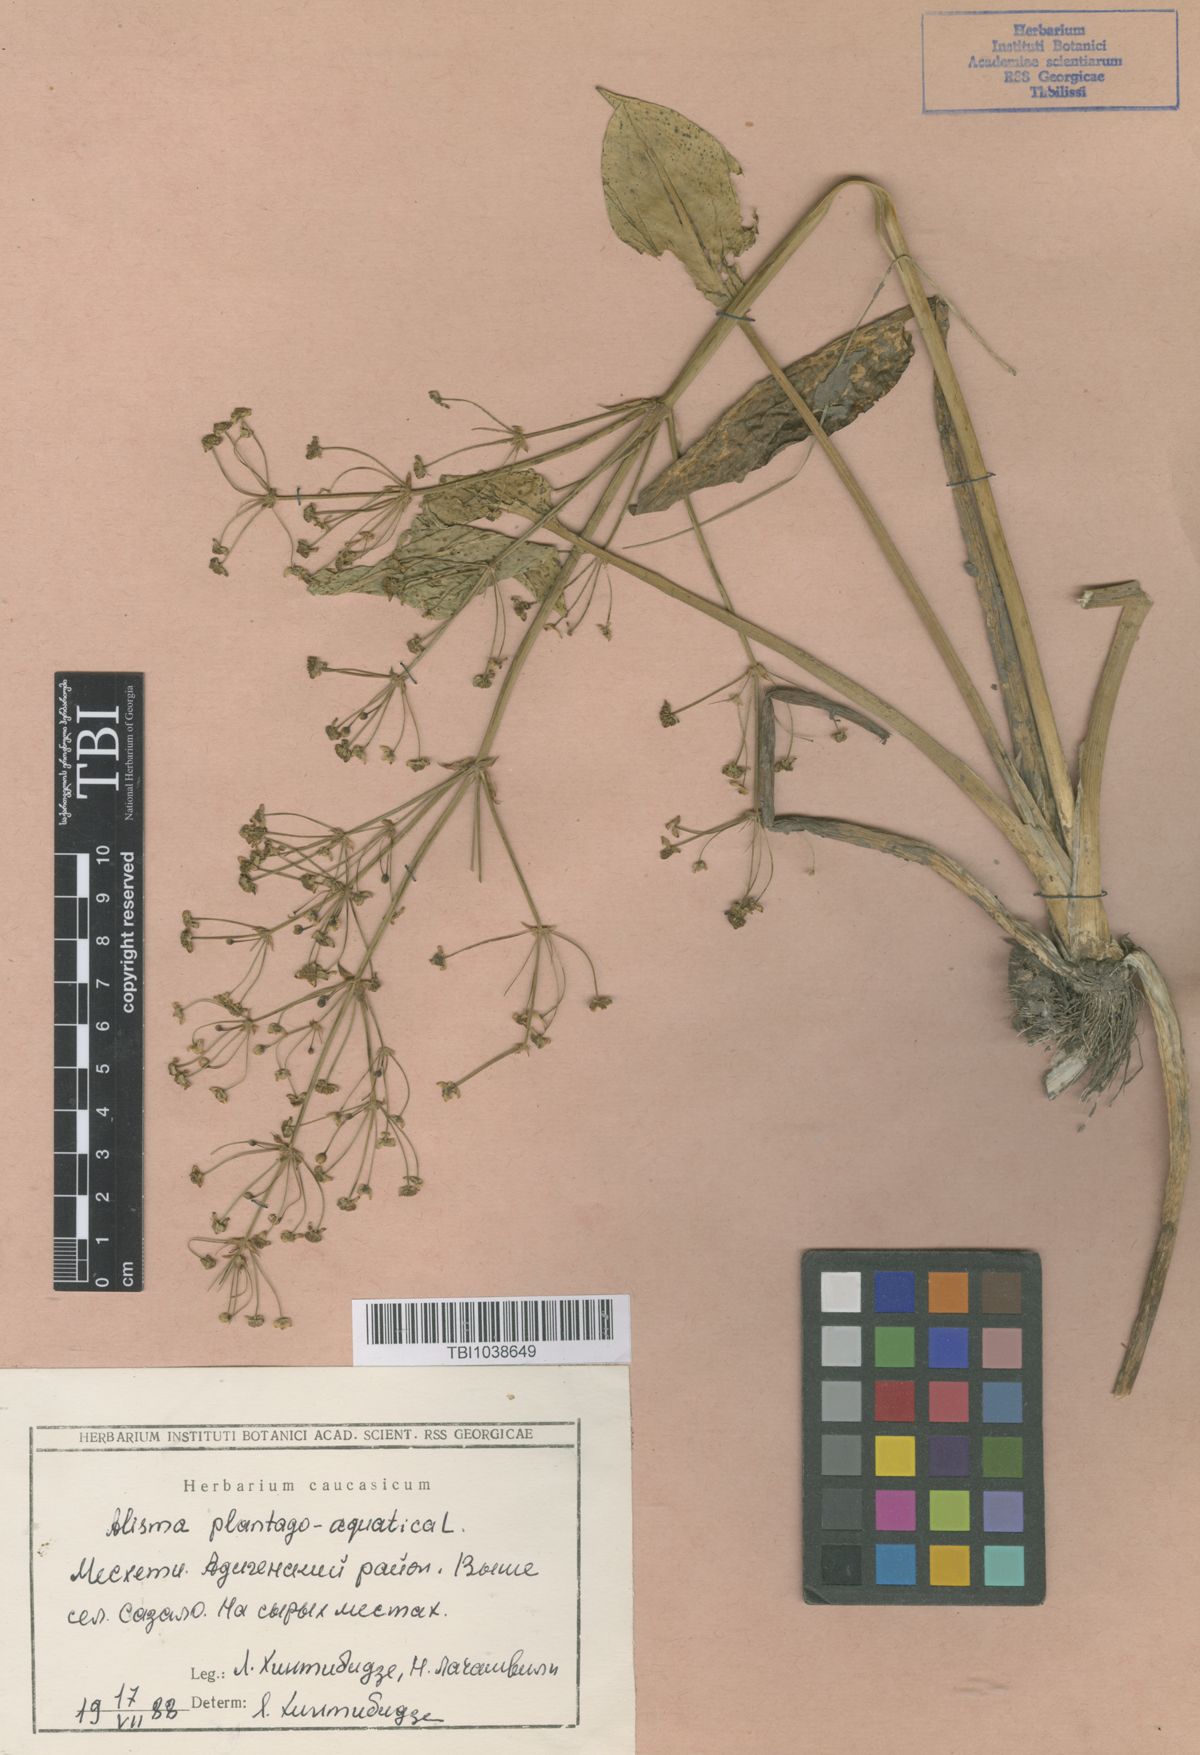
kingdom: Plantae
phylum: Tracheophyta
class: Liliopsida
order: Alismatales
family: Alismataceae
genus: Alisma
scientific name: Alisma plantago-aquatica
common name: Water-plantain
